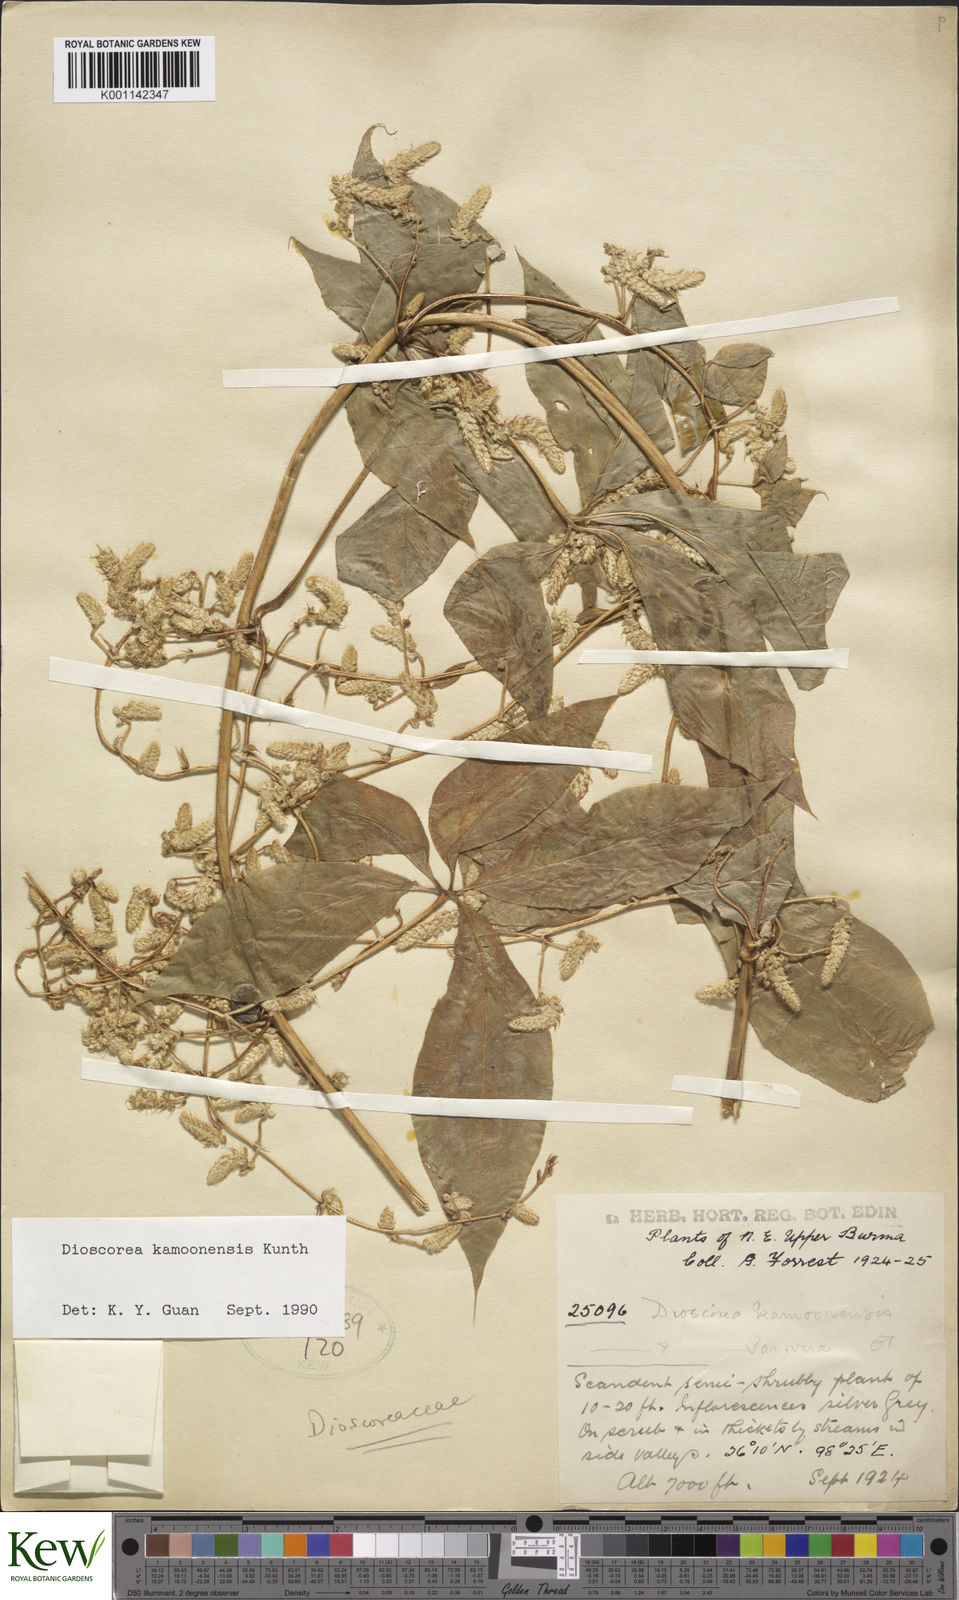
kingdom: Plantae
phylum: Tracheophyta
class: Liliopsida
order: Dioscoreales
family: Dioscoreaceae
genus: Dioscorea
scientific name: Dioscorea kamoonensis
